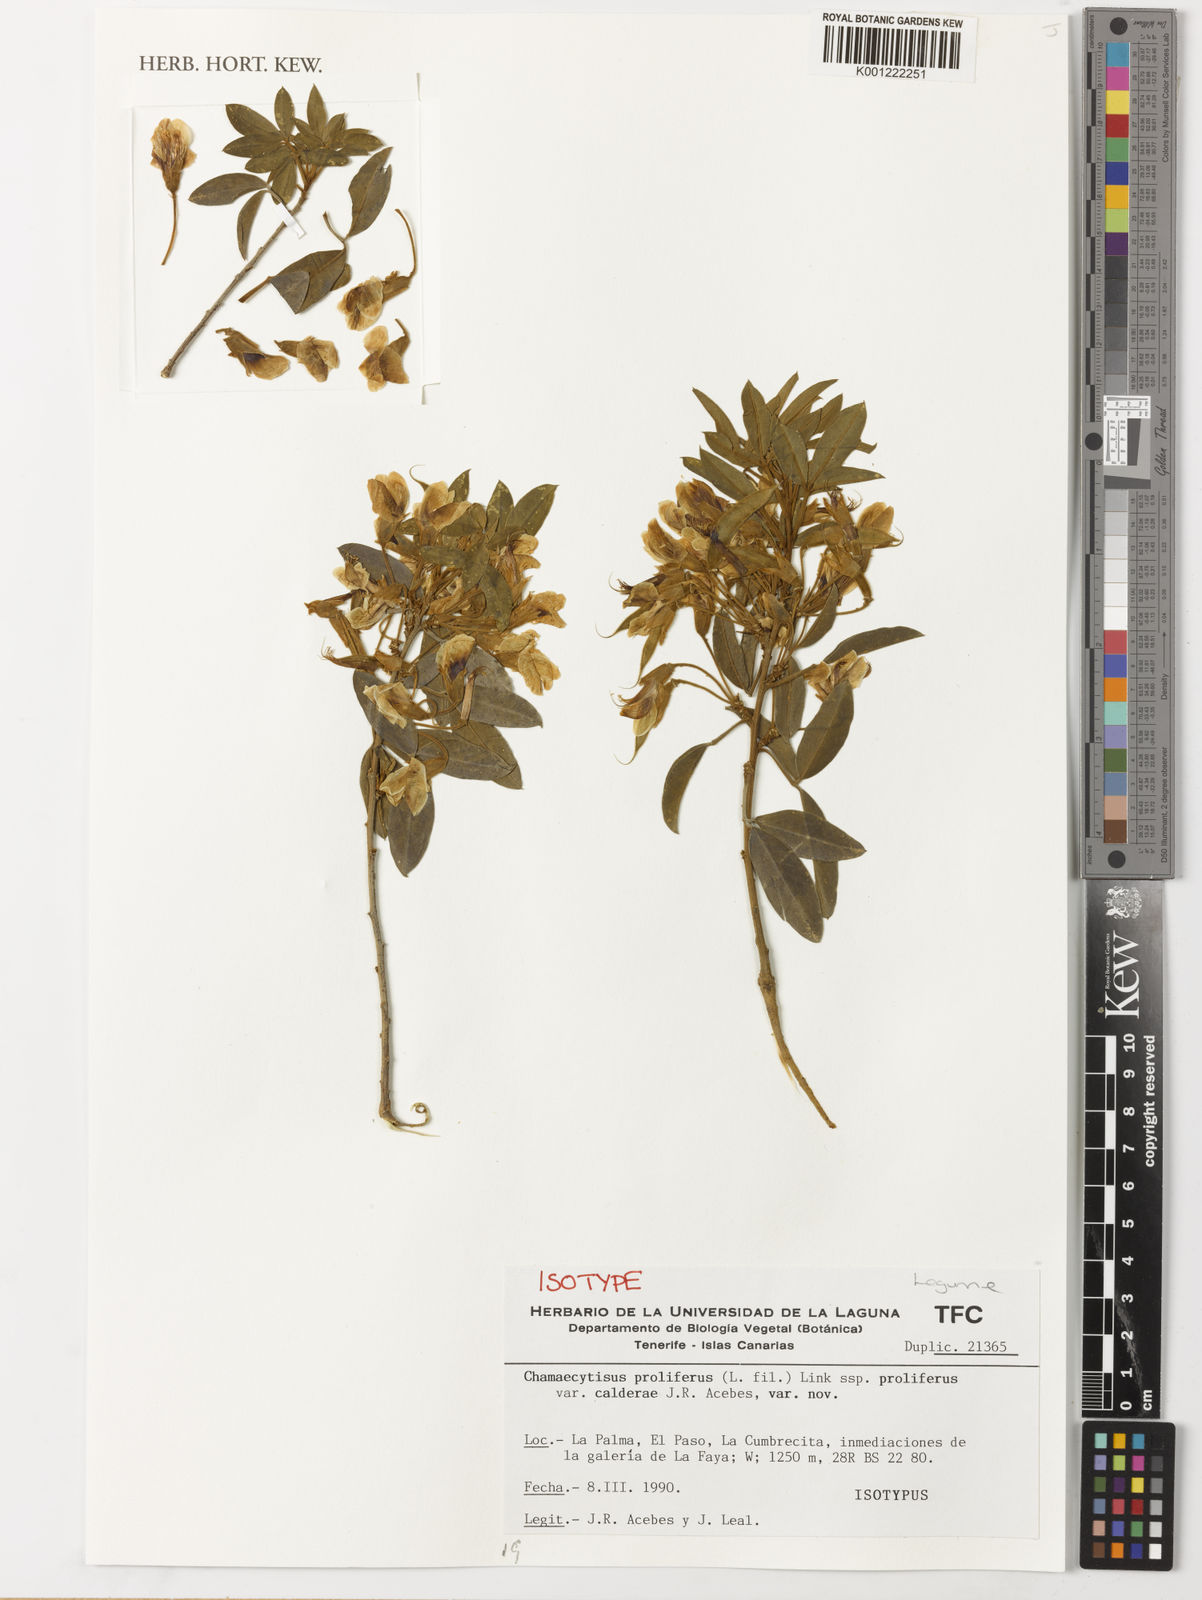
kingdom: Plantae
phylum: Tracheophyta
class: Magnoliopsida
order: Fabales
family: Fabaceae
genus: Chamaecytisus
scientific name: Chamaecytisus
